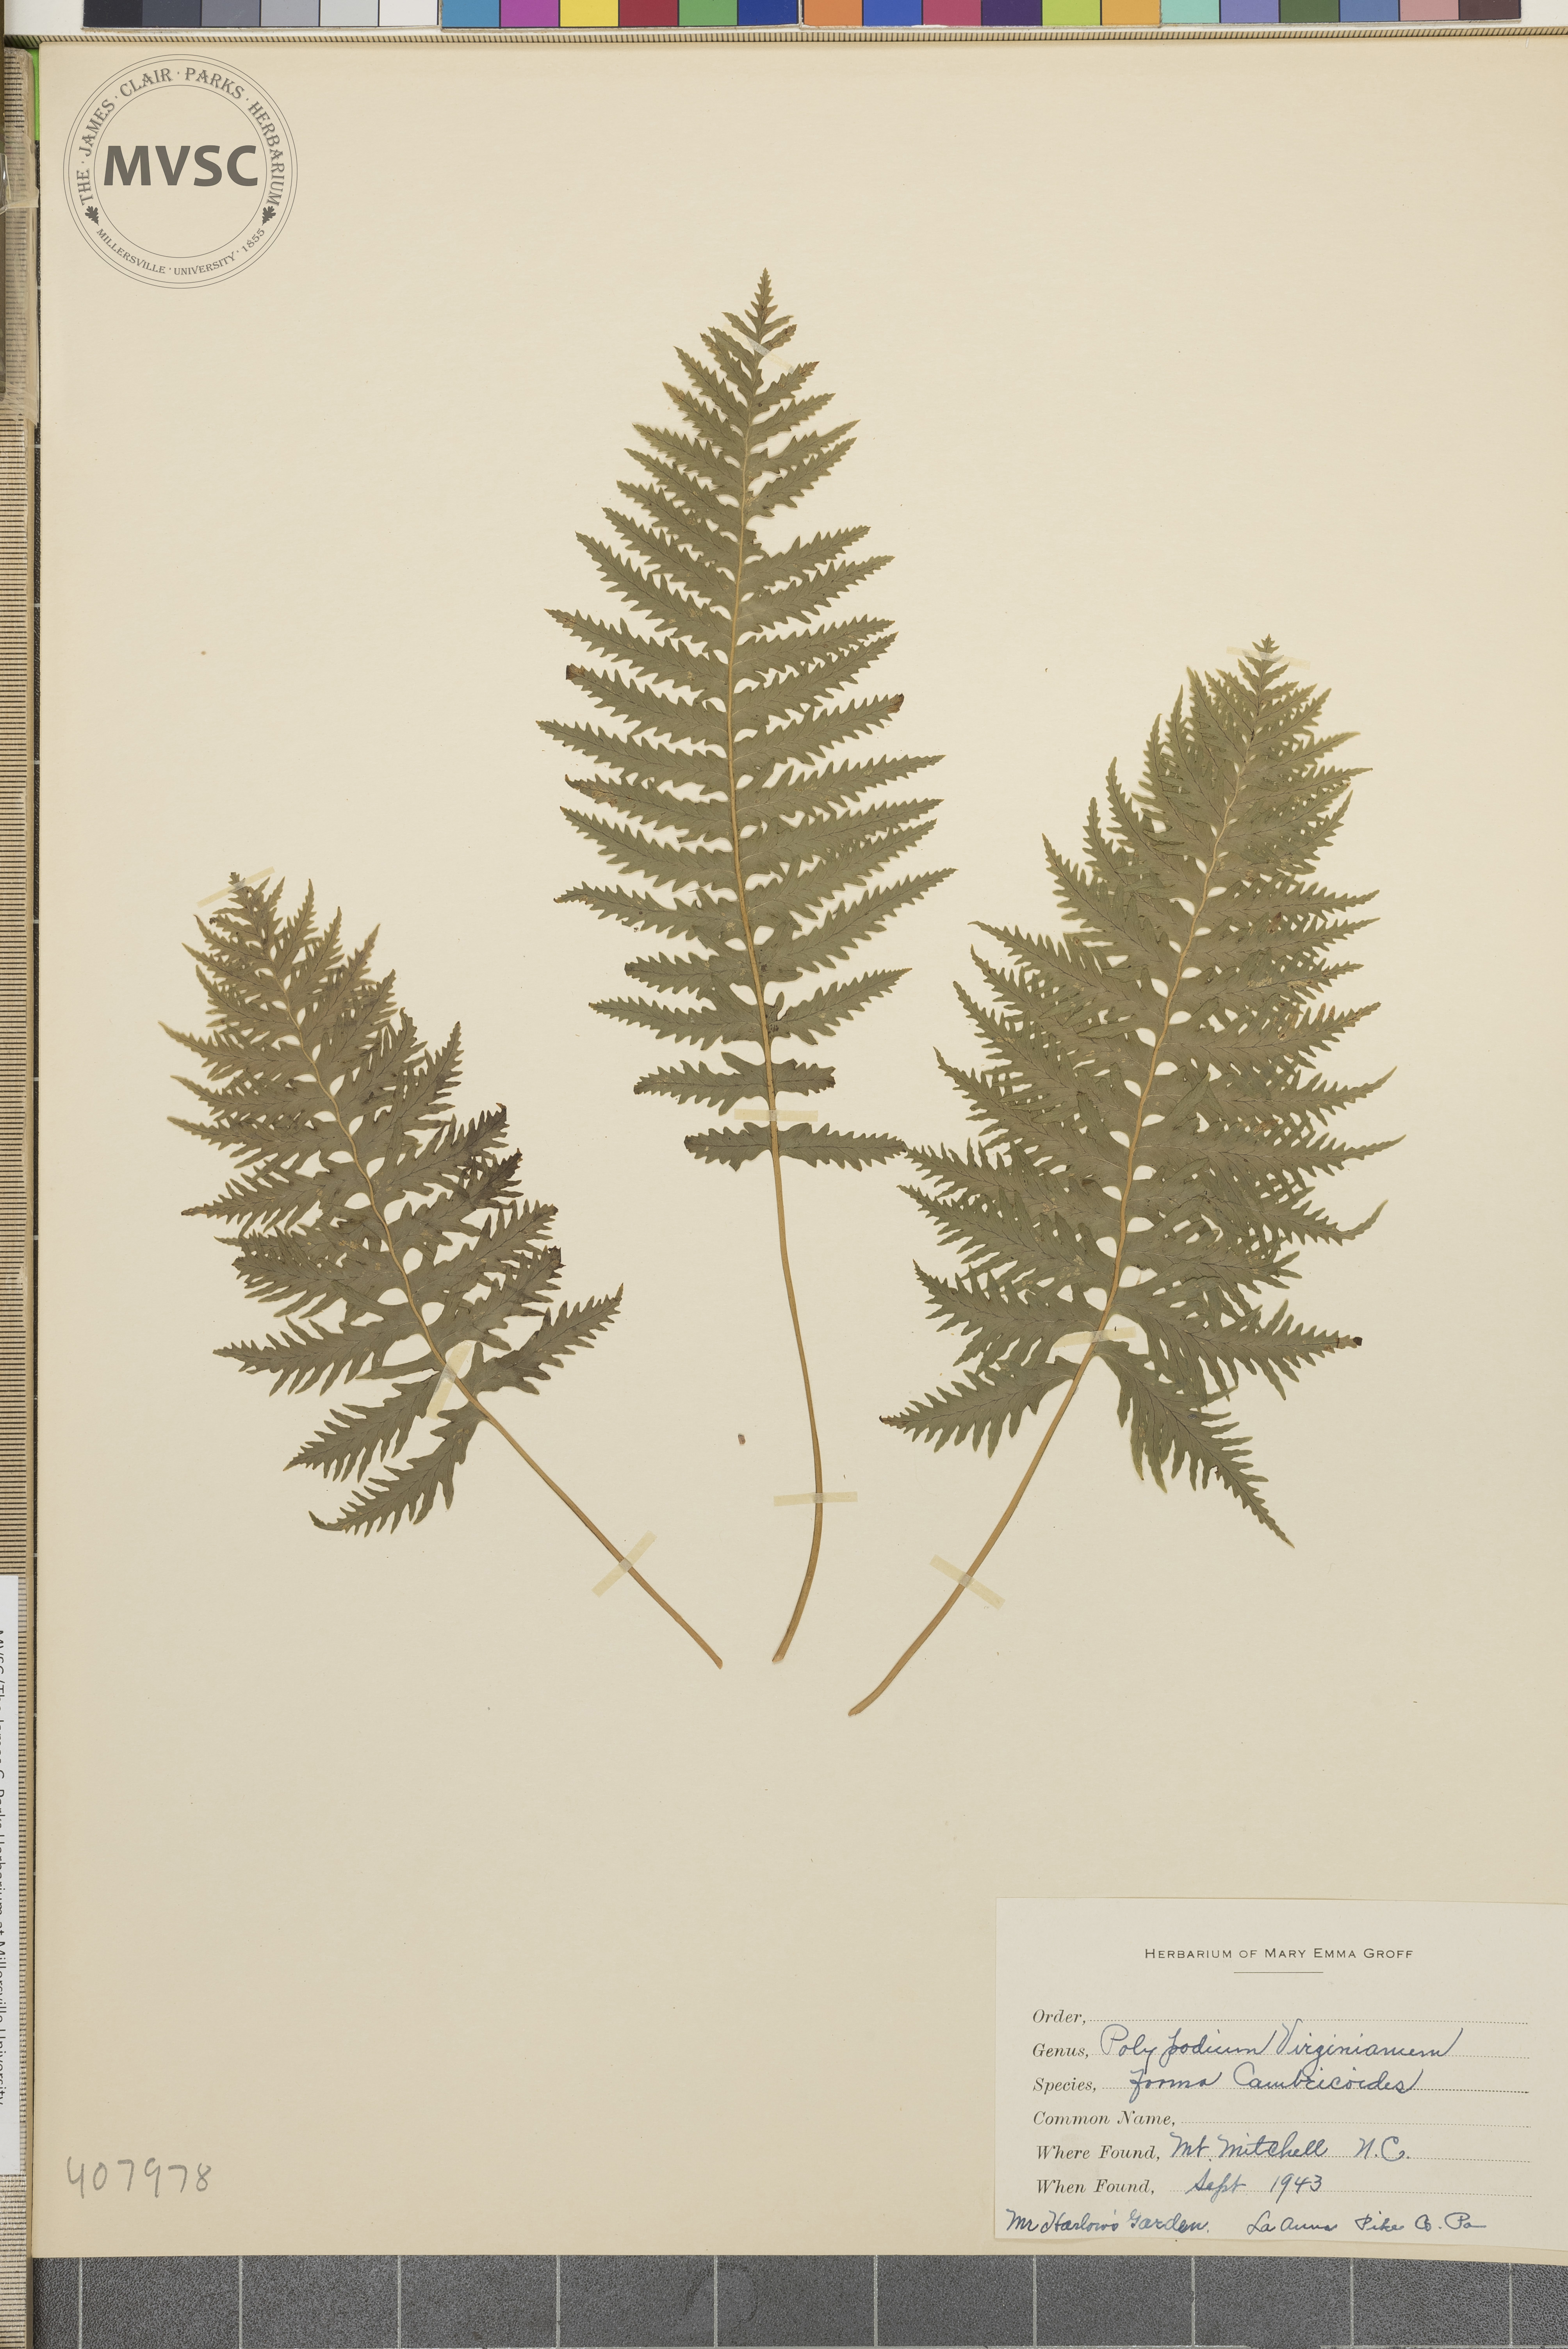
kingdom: Plantae
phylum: Tracheophyta
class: Polypodiopsida
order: Polypodiales
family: Polypodiaceae
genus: Polypodium
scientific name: Polypodium virginianum
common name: American wall fern
